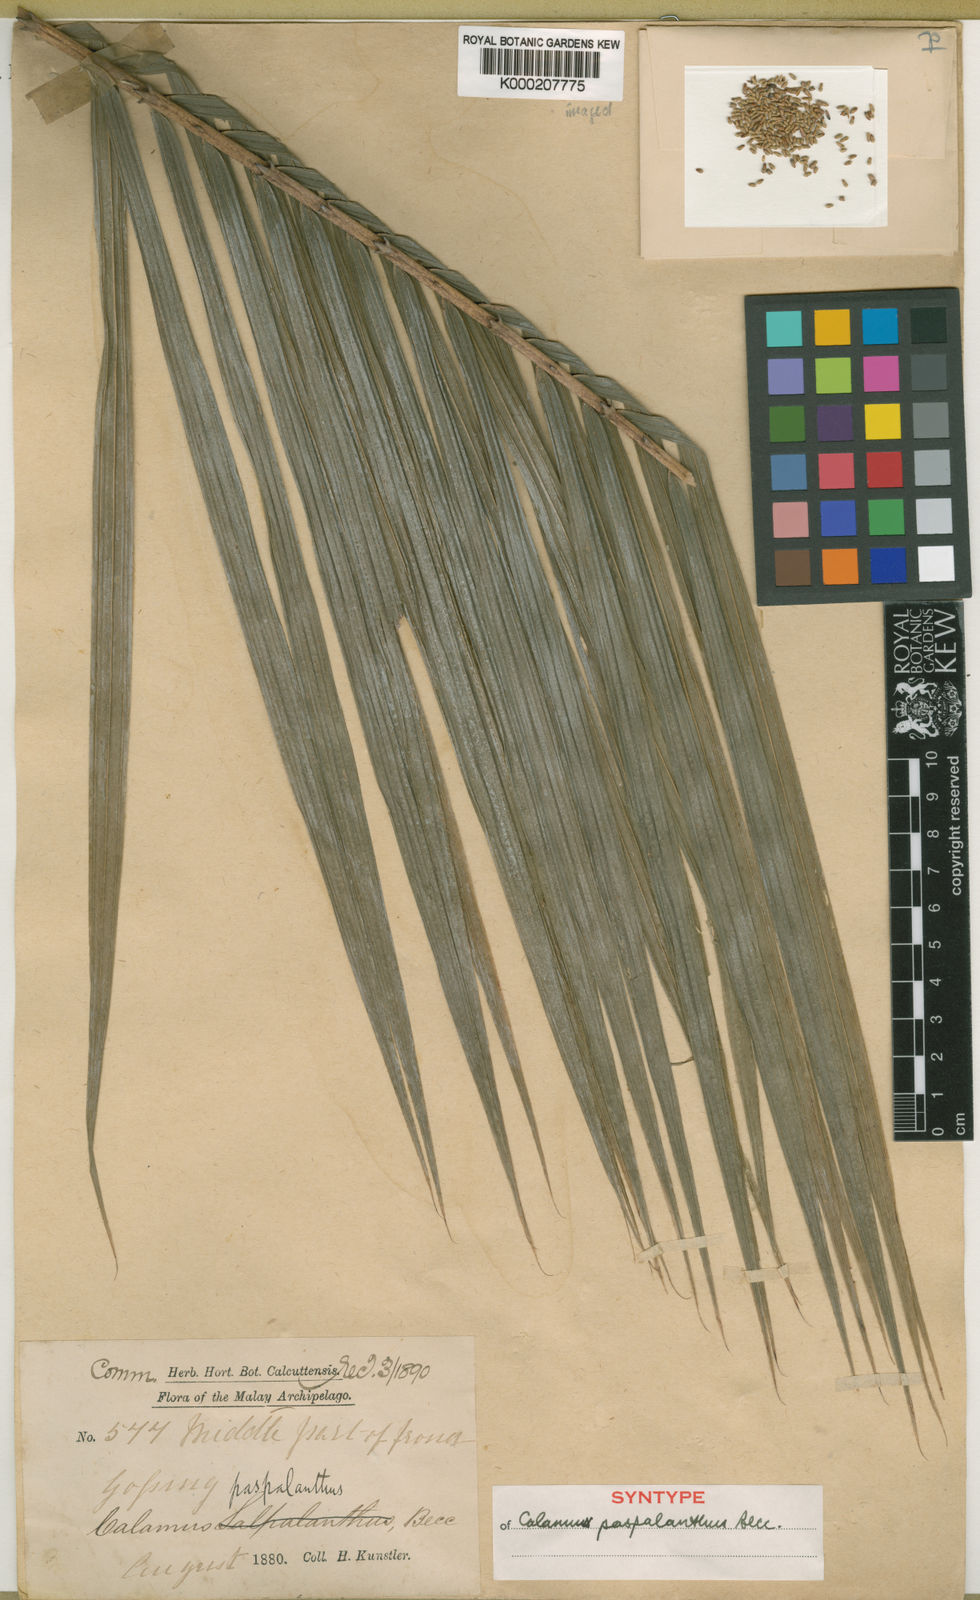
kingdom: Plantae
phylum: Tracheophyta
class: Liliopsida
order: Arecales
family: Arecaceae
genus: Calamus
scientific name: Calamus paspalanthus
